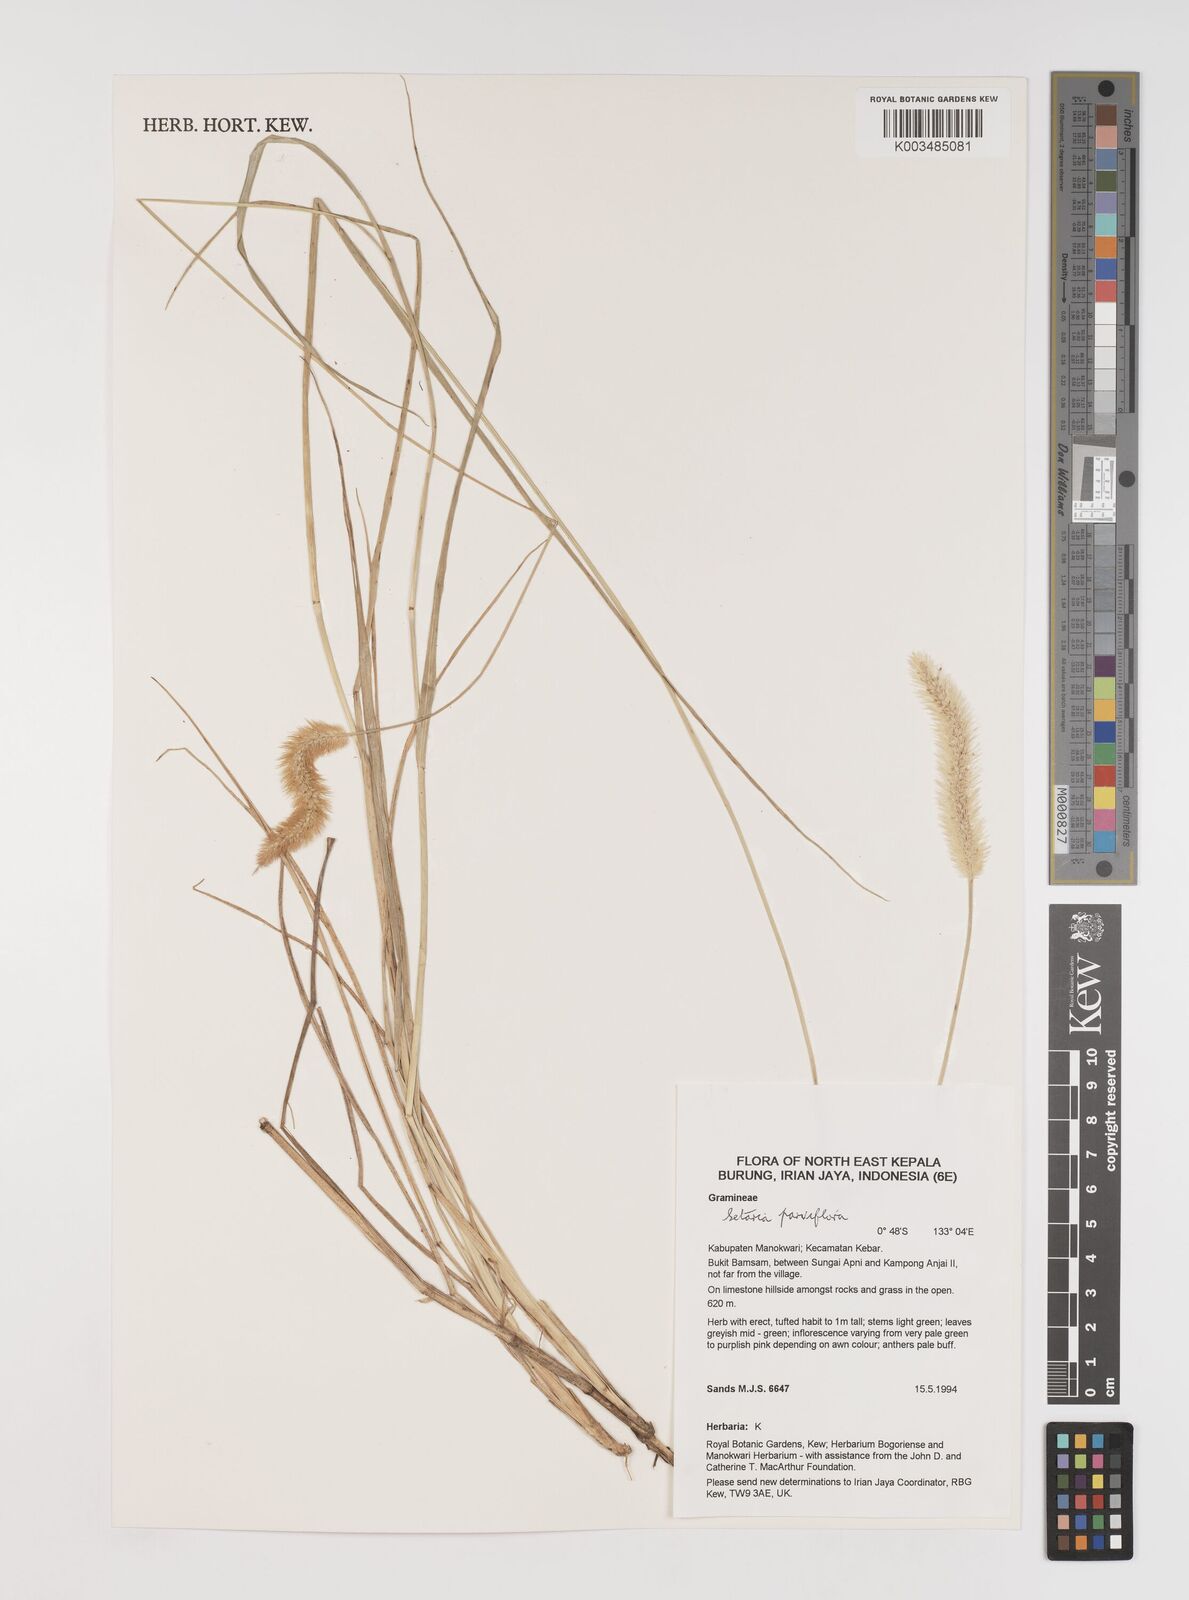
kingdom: Plantae
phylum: Tracheophyta
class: Liliopsida
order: Poales
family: Poaceae
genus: Setaria
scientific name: Setaria parviflora
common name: Knotroot bristle-grass
